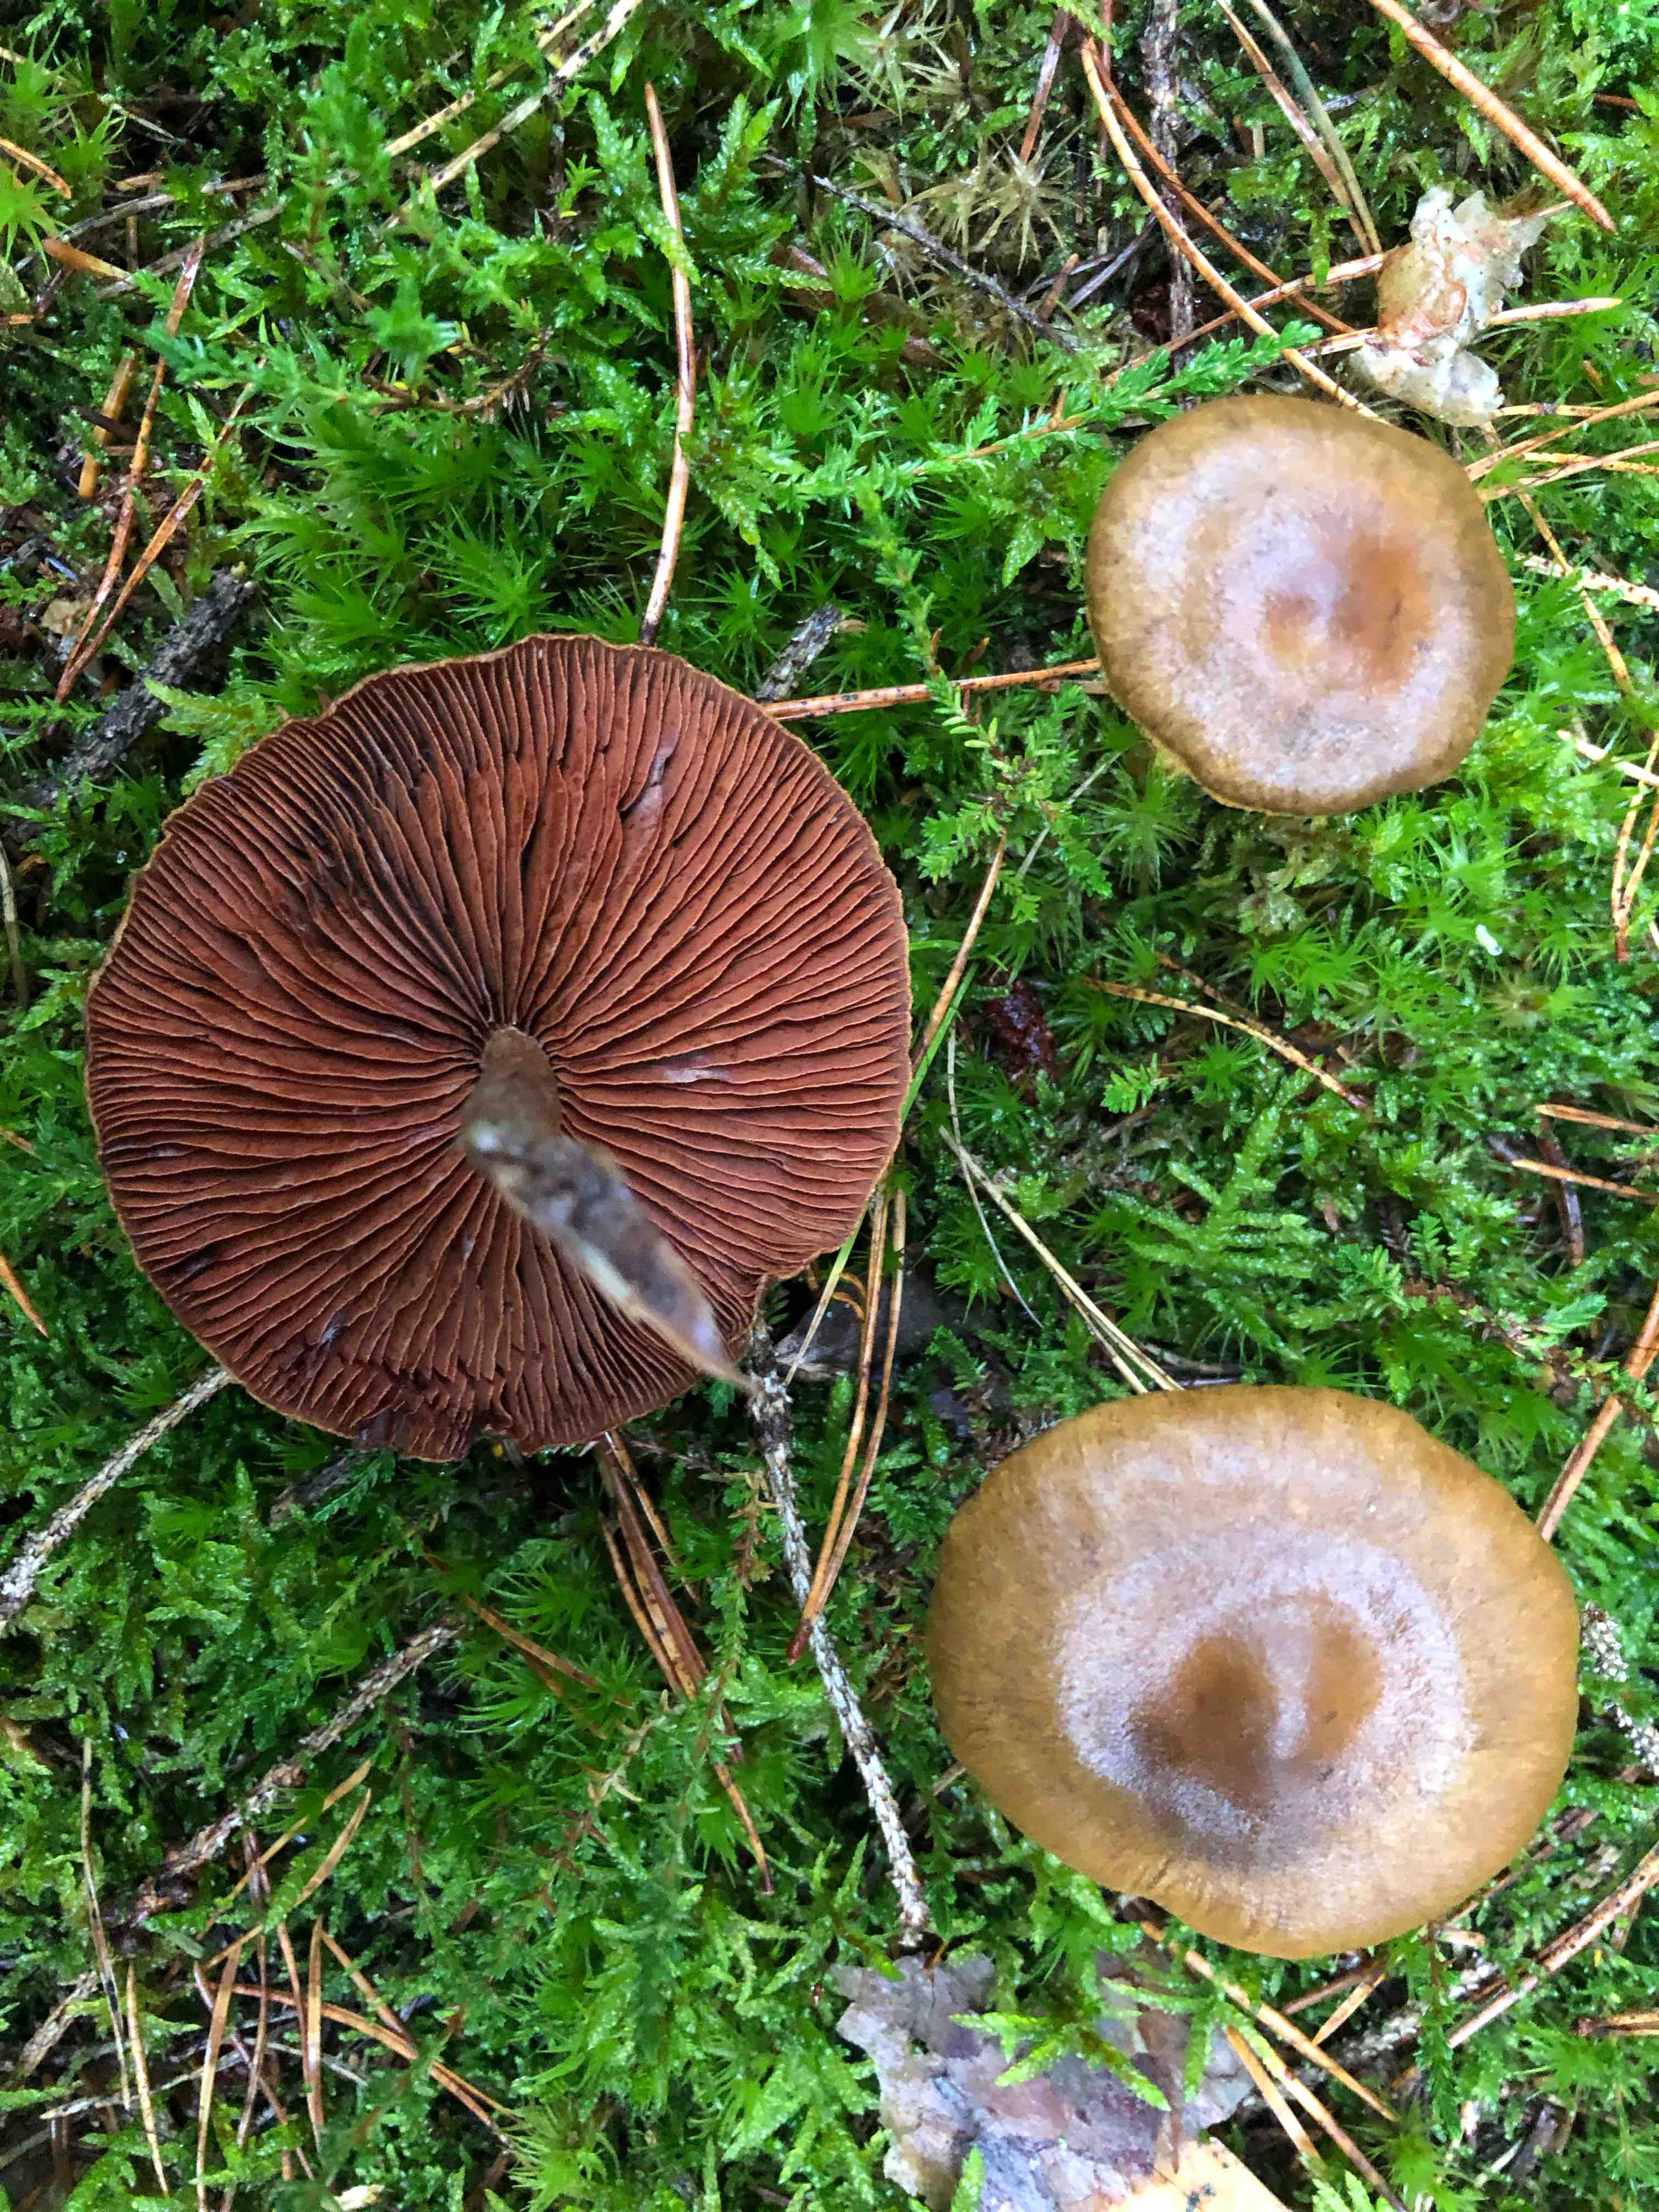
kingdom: Fungi
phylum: Basidiomycota
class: Agaricomycetes
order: Agaricales
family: Cortinariaceae
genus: Cortinarius
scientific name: Cortinarius
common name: cinnoberbladet slørhat
